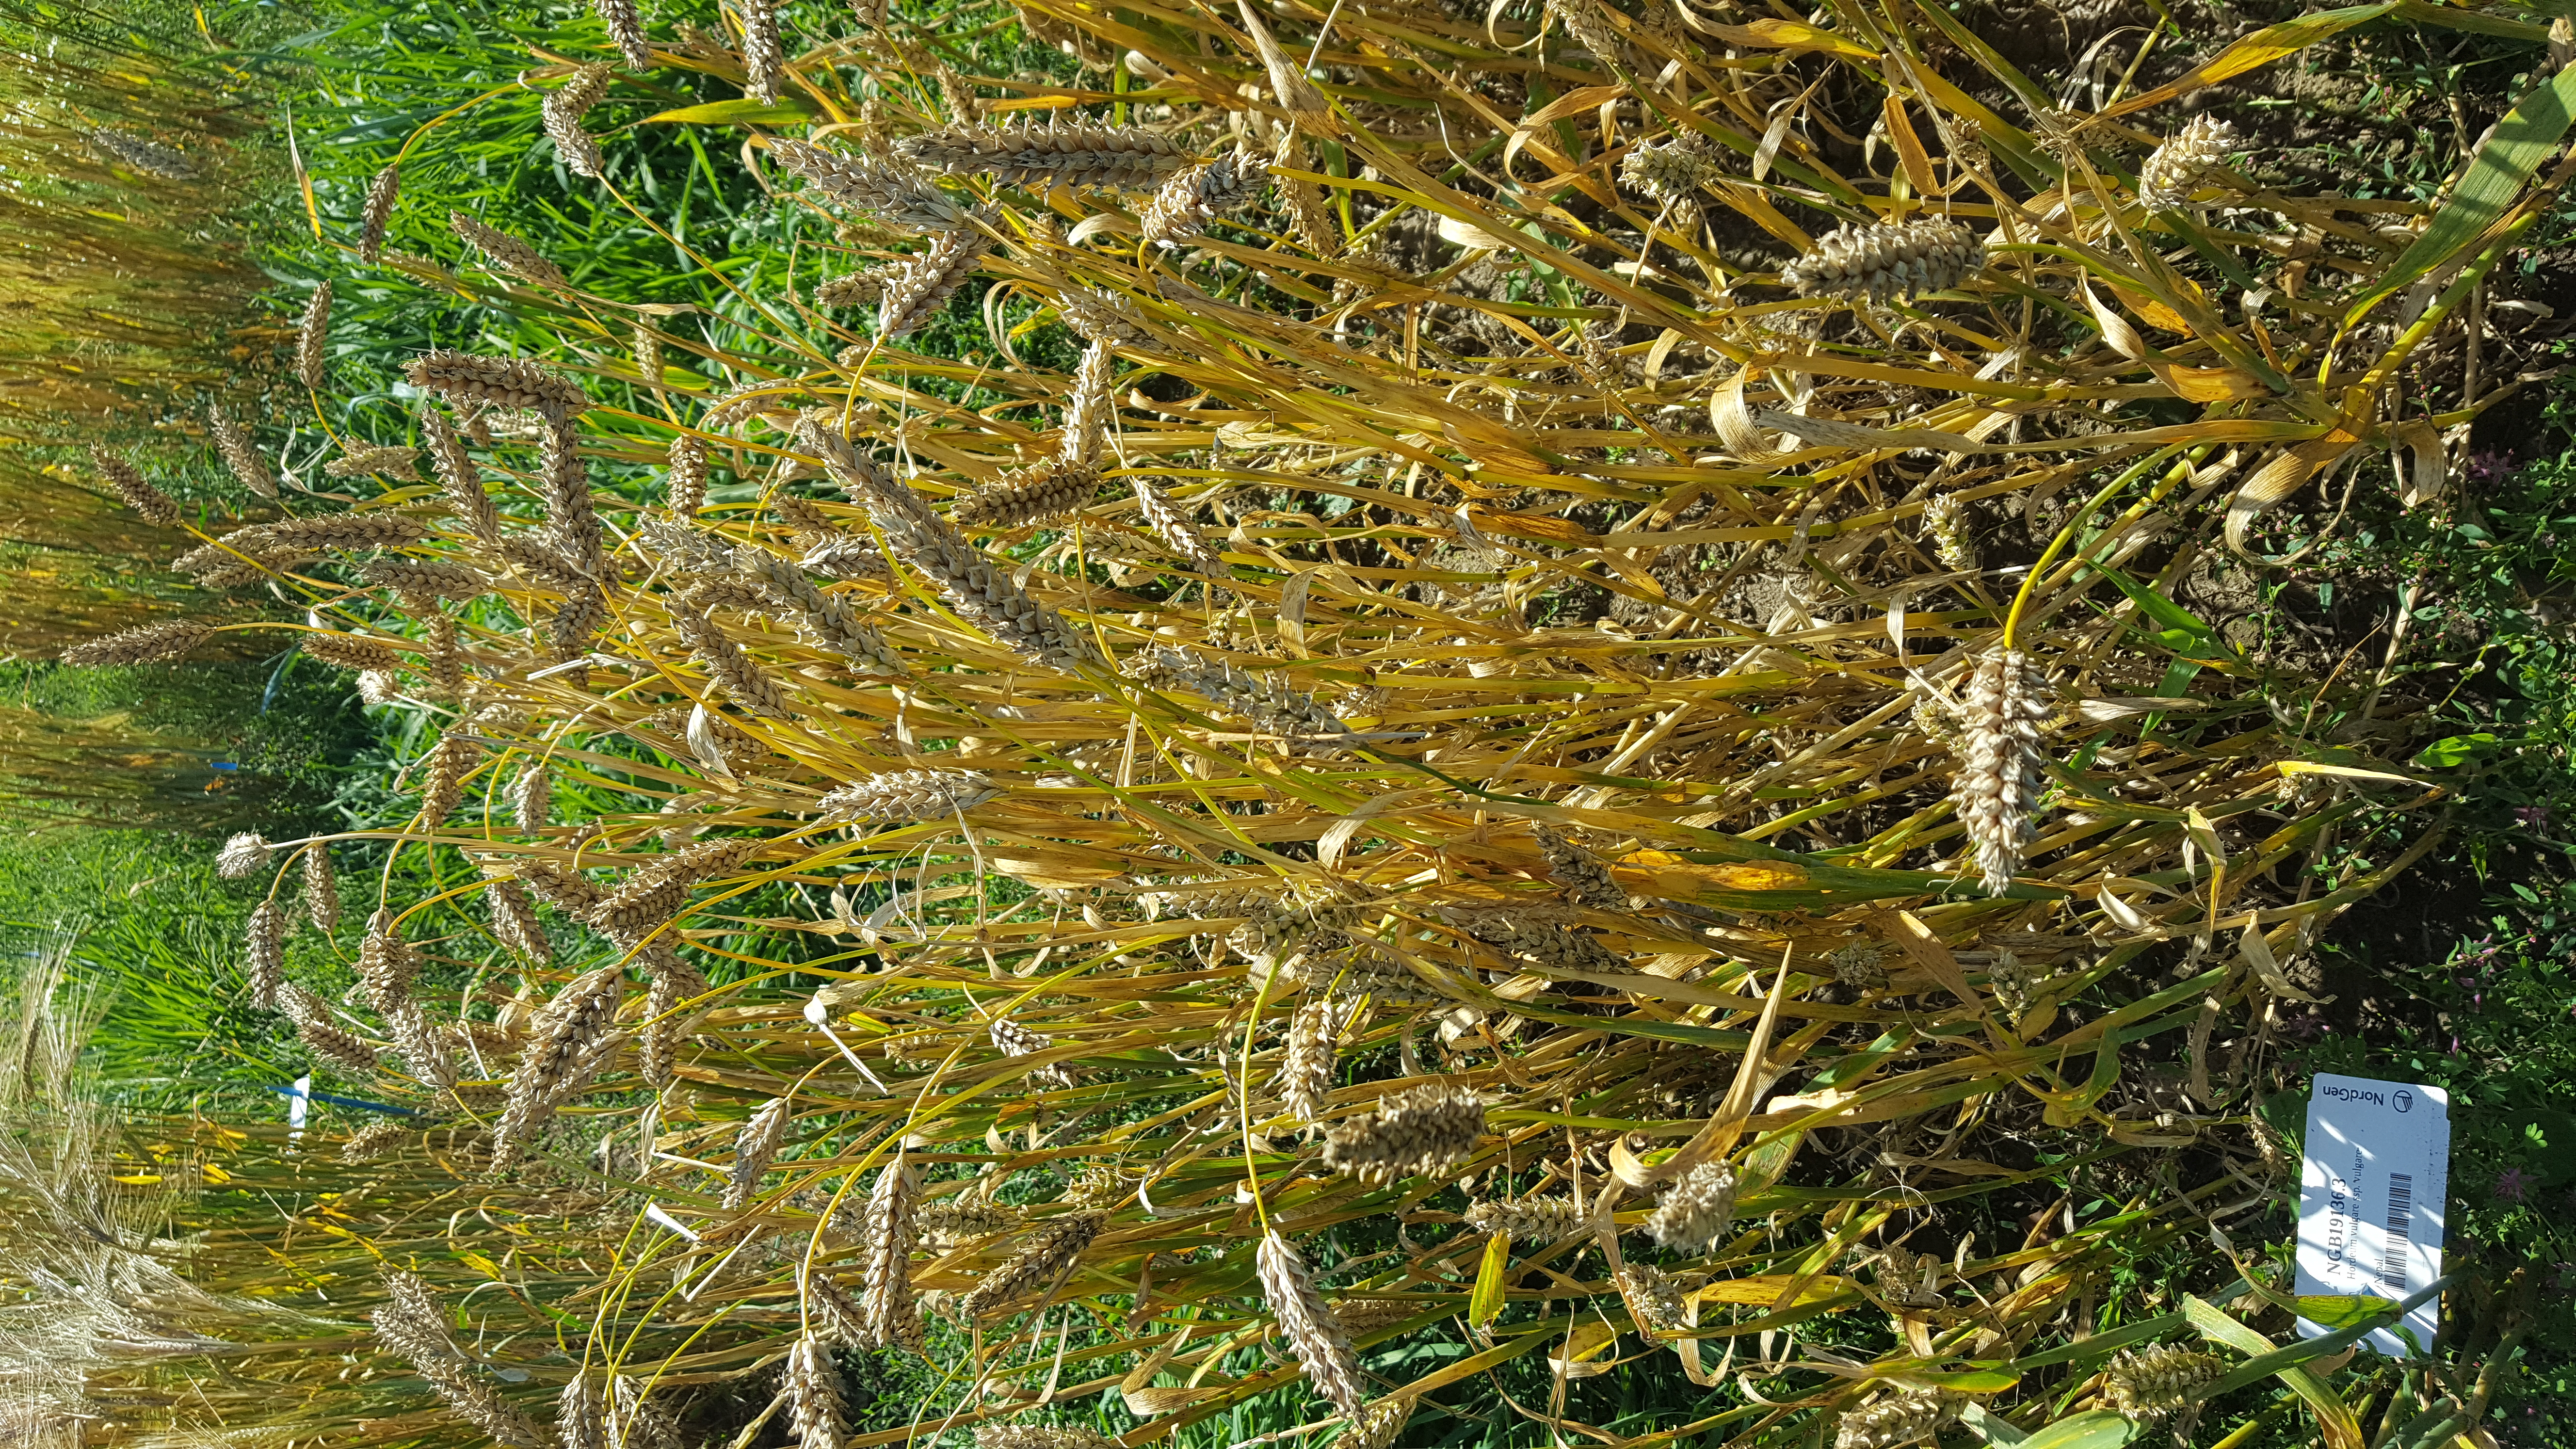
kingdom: Plantae
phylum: Tracheophyta
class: Liliopsida
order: Poales
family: Poaceae
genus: Hordeum
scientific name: Hordeum vulgare
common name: Common barley
